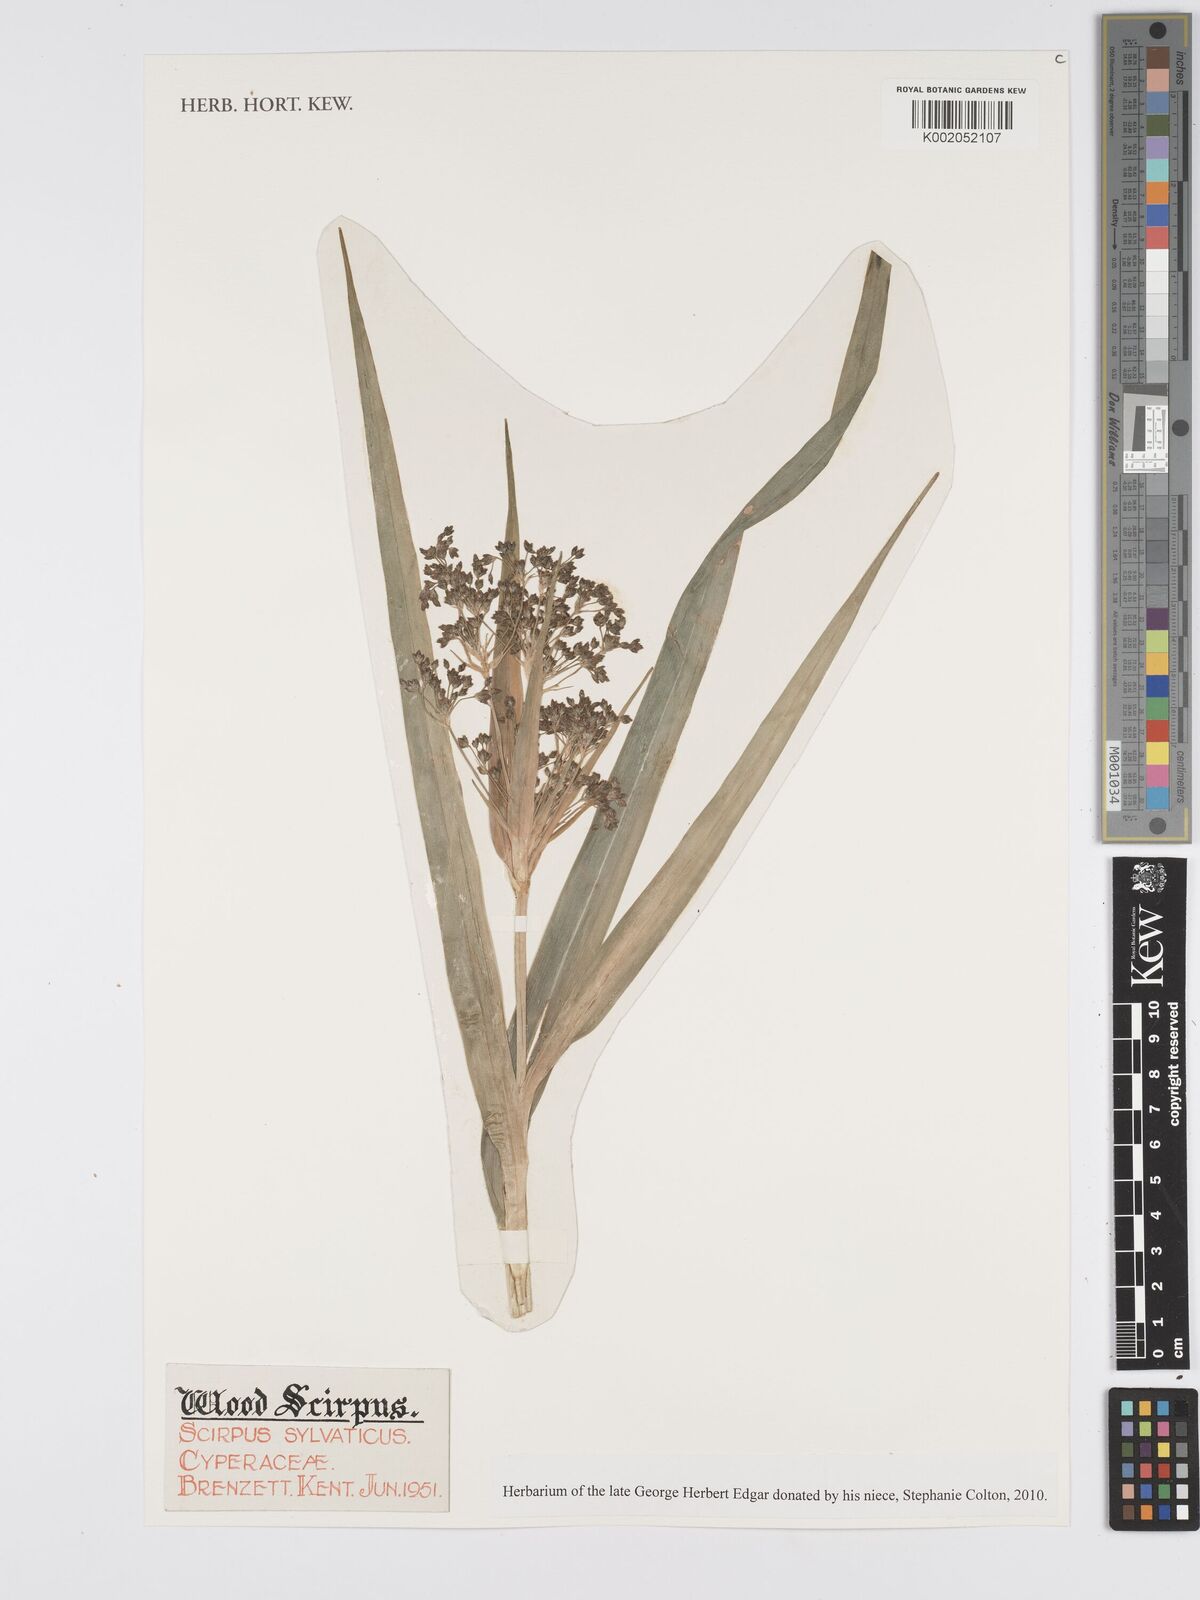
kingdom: Plantae
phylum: Tracheophyta
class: Liliopsida
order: Poales
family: Cyperaceae
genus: Scirpus
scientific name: Scirpus sylvaticus
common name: Wood club-rush
